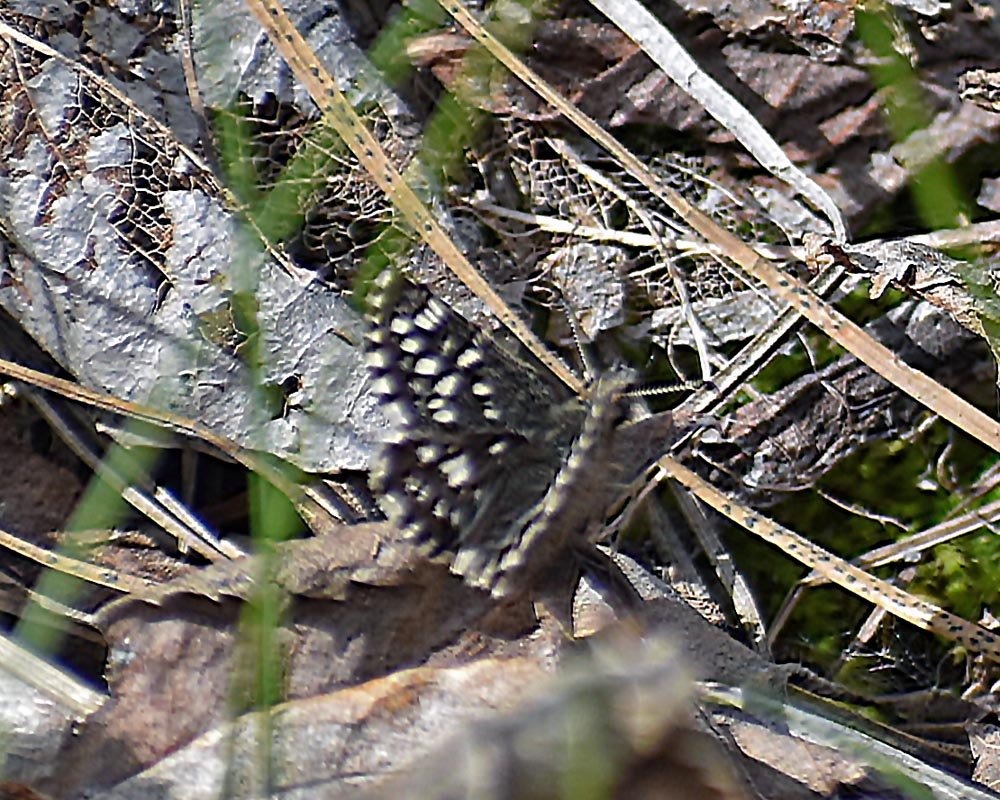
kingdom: Animalia
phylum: Arthropoda
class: Insecta
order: Lepidoptera
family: Hesperiidae
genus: Pyrgus
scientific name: Pyrgus ruralis
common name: Two-banded Checkered-Skipper
